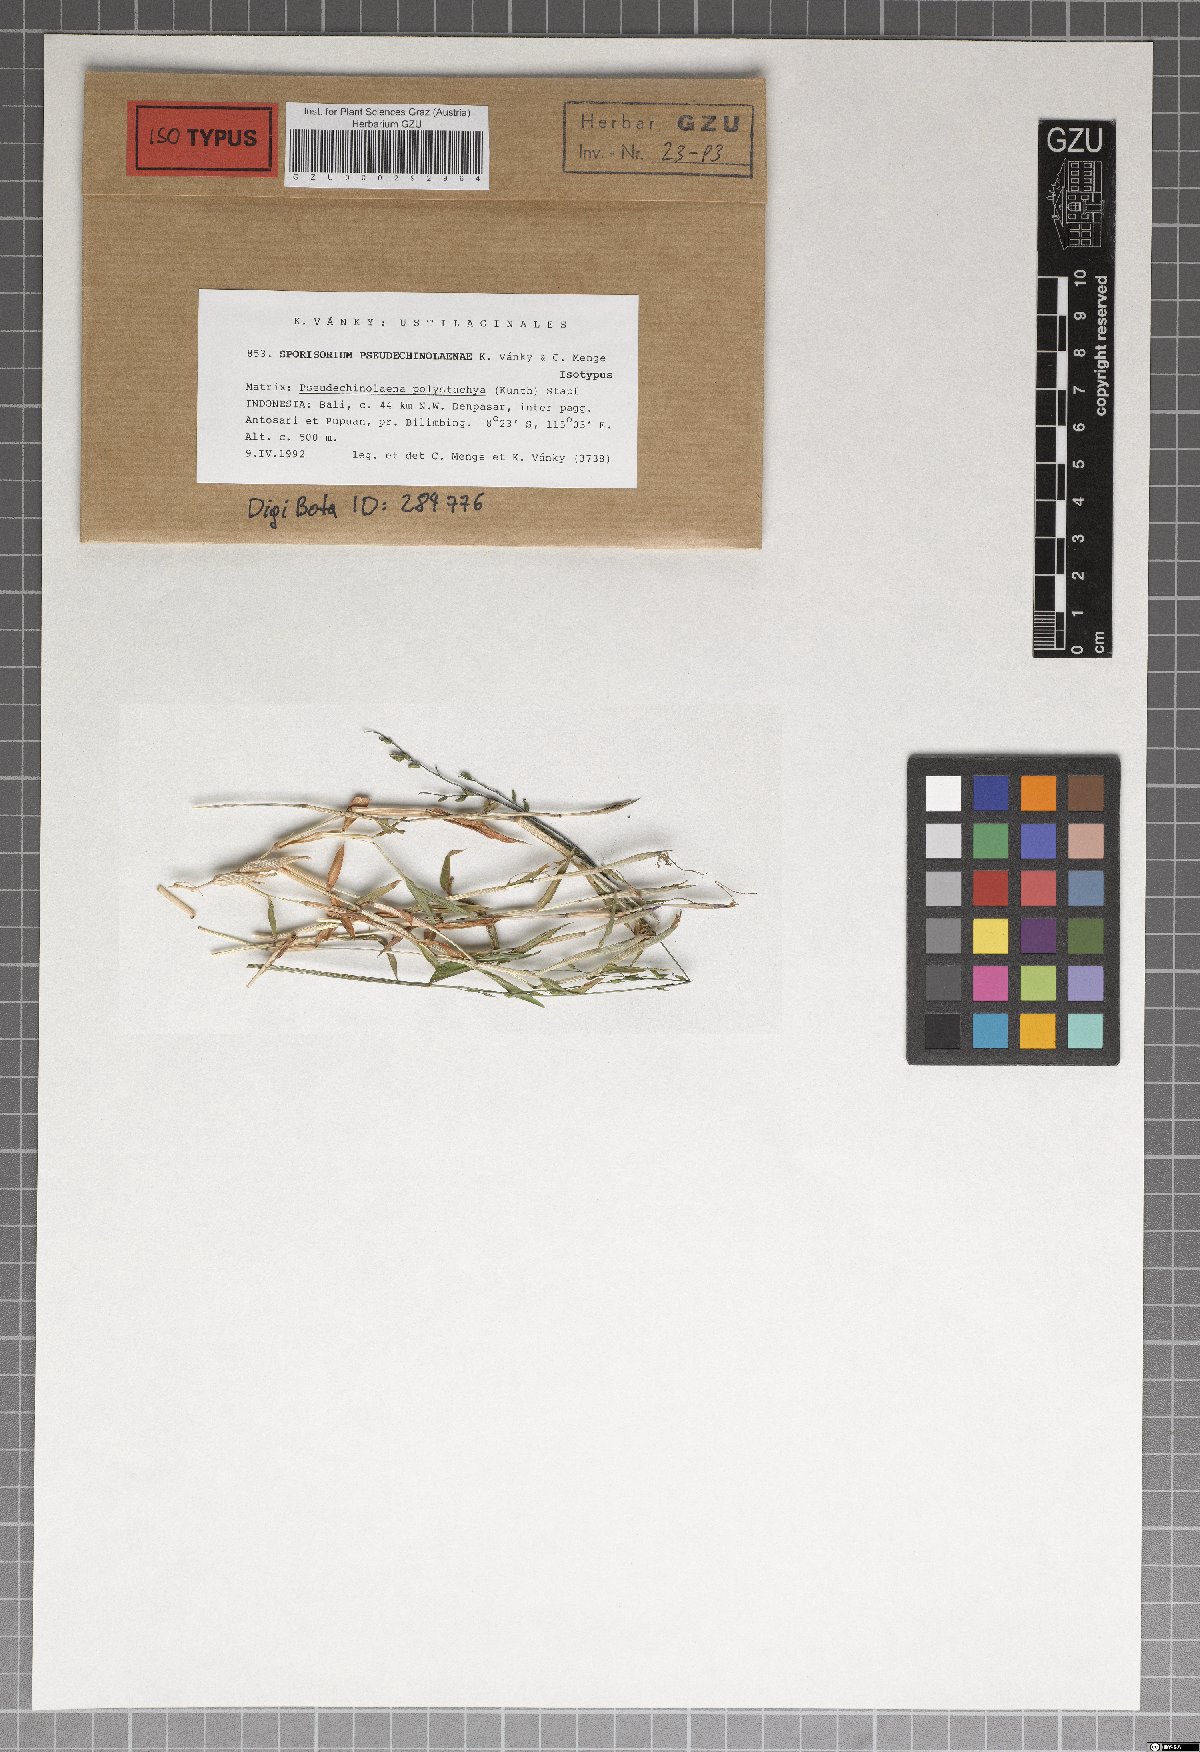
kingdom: Fungi
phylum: Basidiomycota
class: Ustilaginomycetes
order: Ustilaginales
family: Ustilaginaceae
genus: Sporisorium
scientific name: Sporisorium pseudechinolaenae
